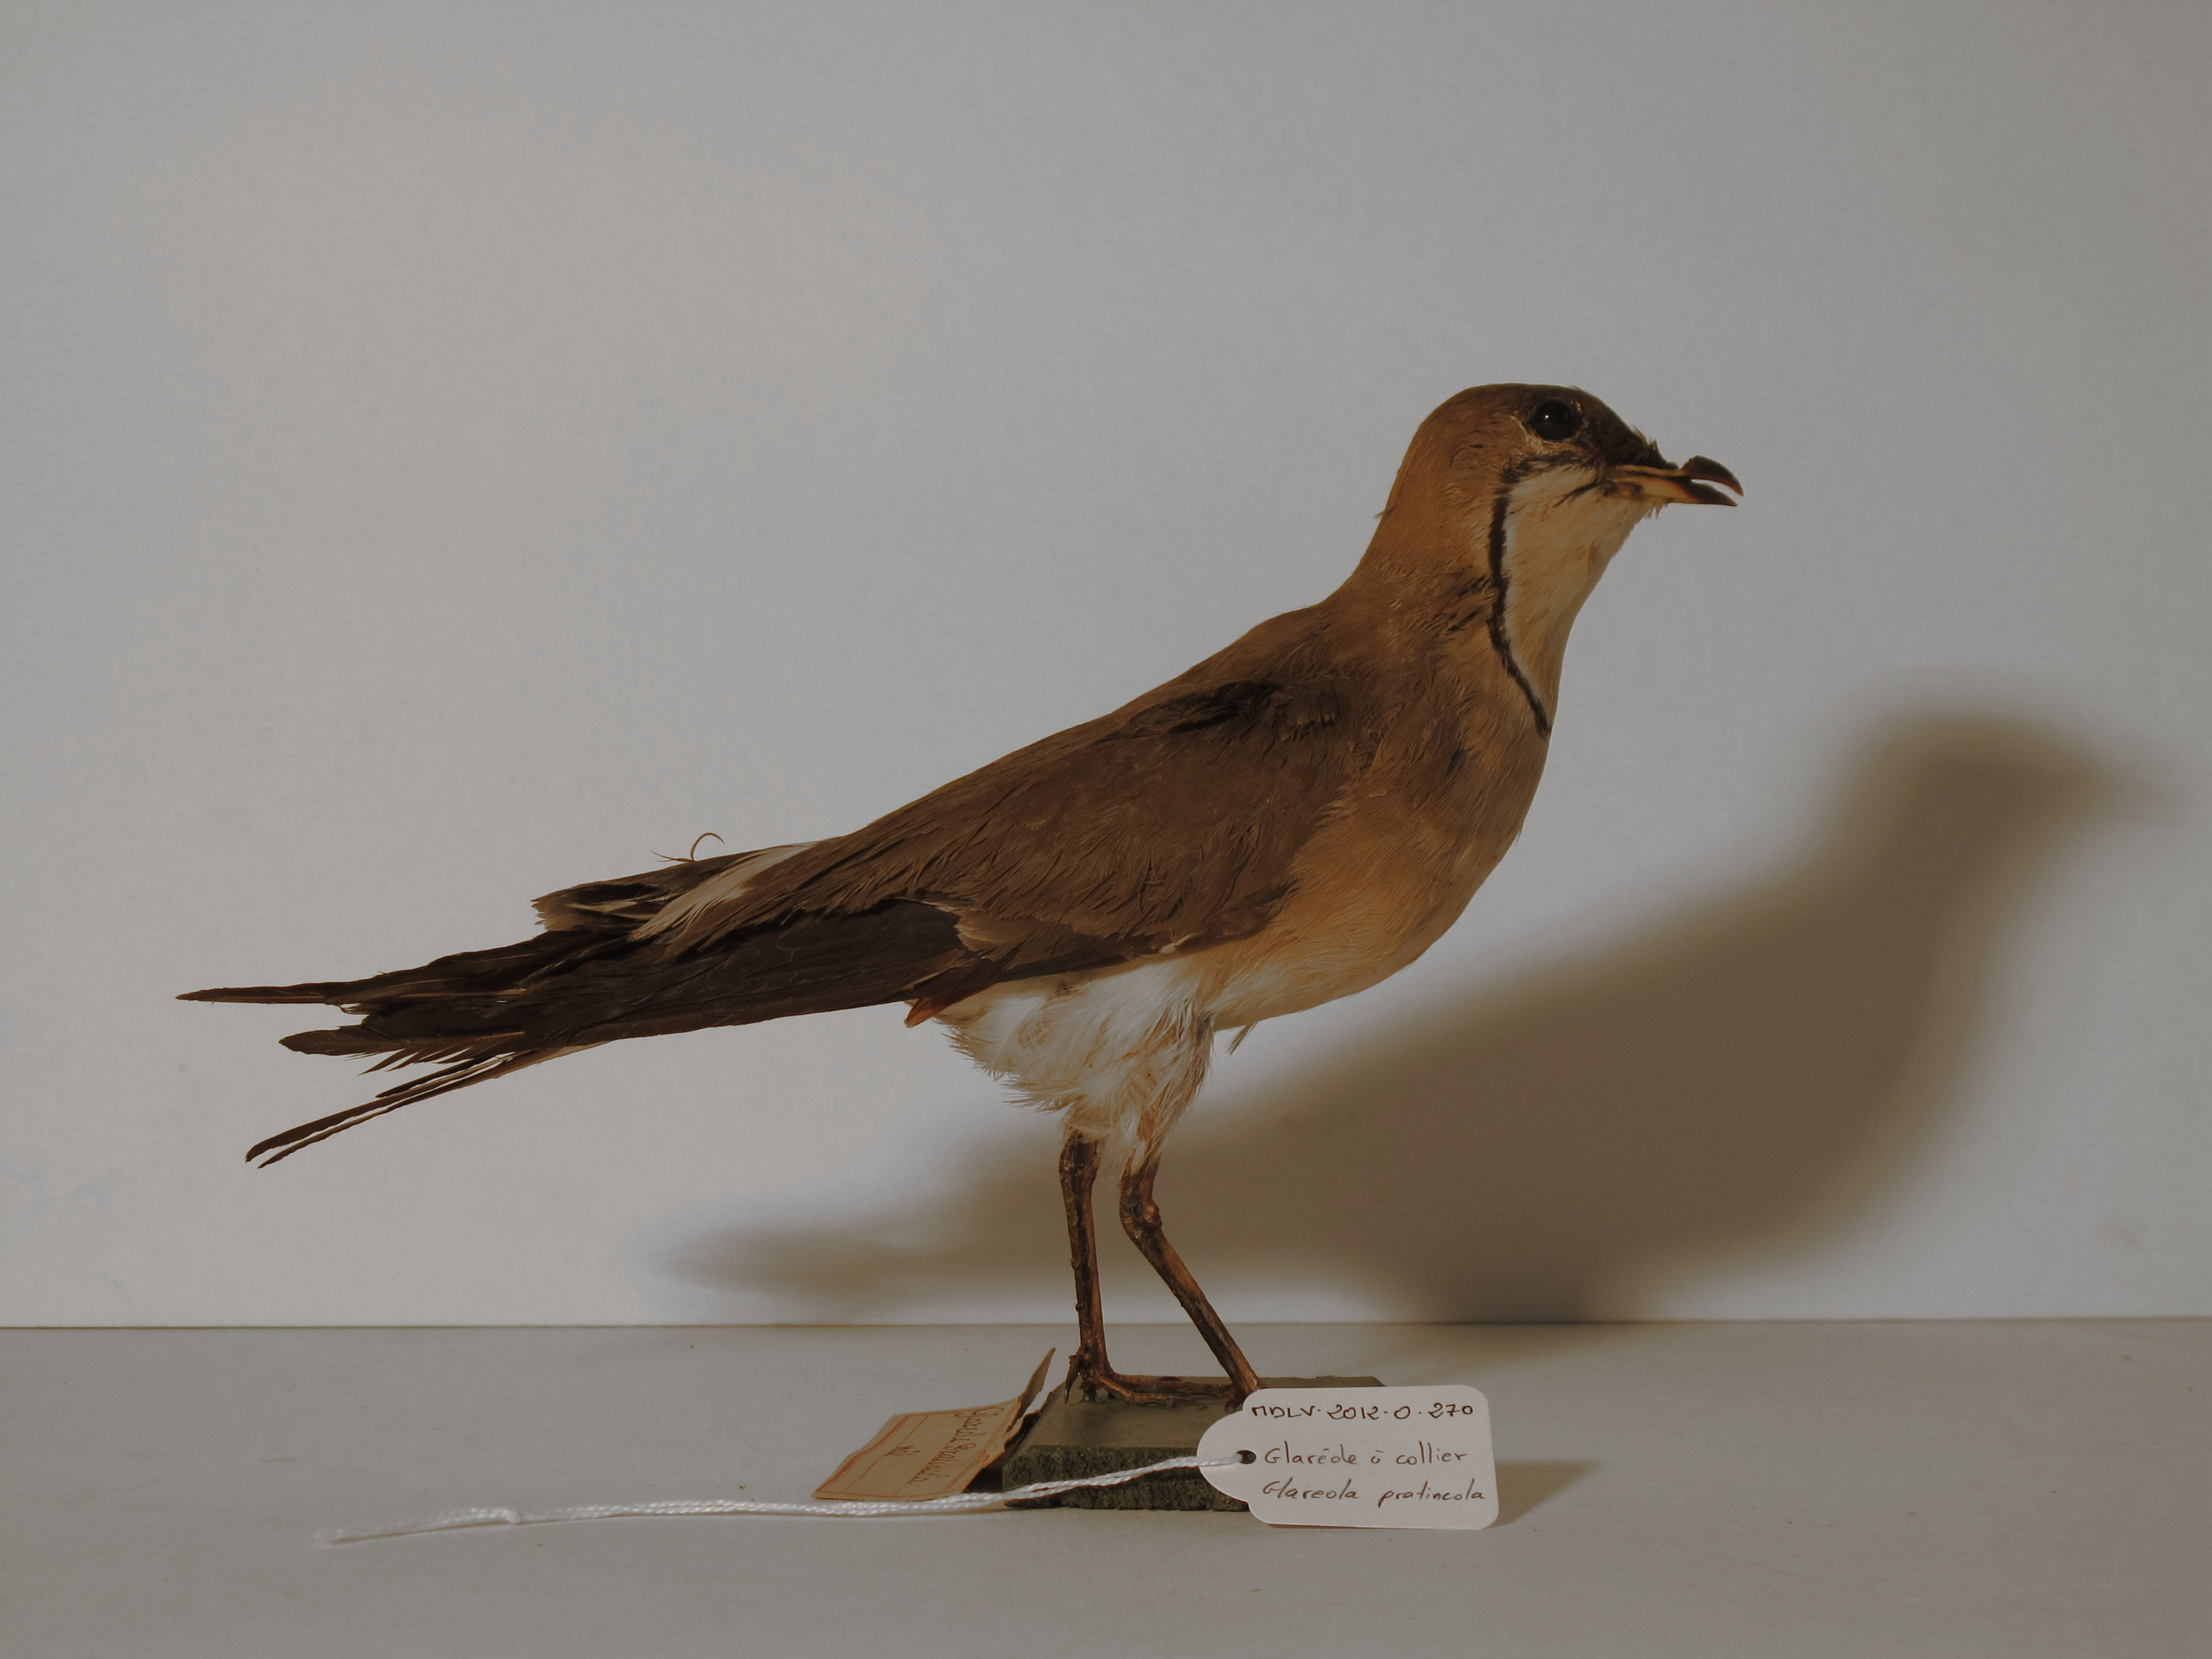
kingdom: Animalia
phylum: Chordata
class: Aves
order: Charadriiformes
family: Glareolidae
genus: Glareola
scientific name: Glareola pratincola
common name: Collared Pratincole
